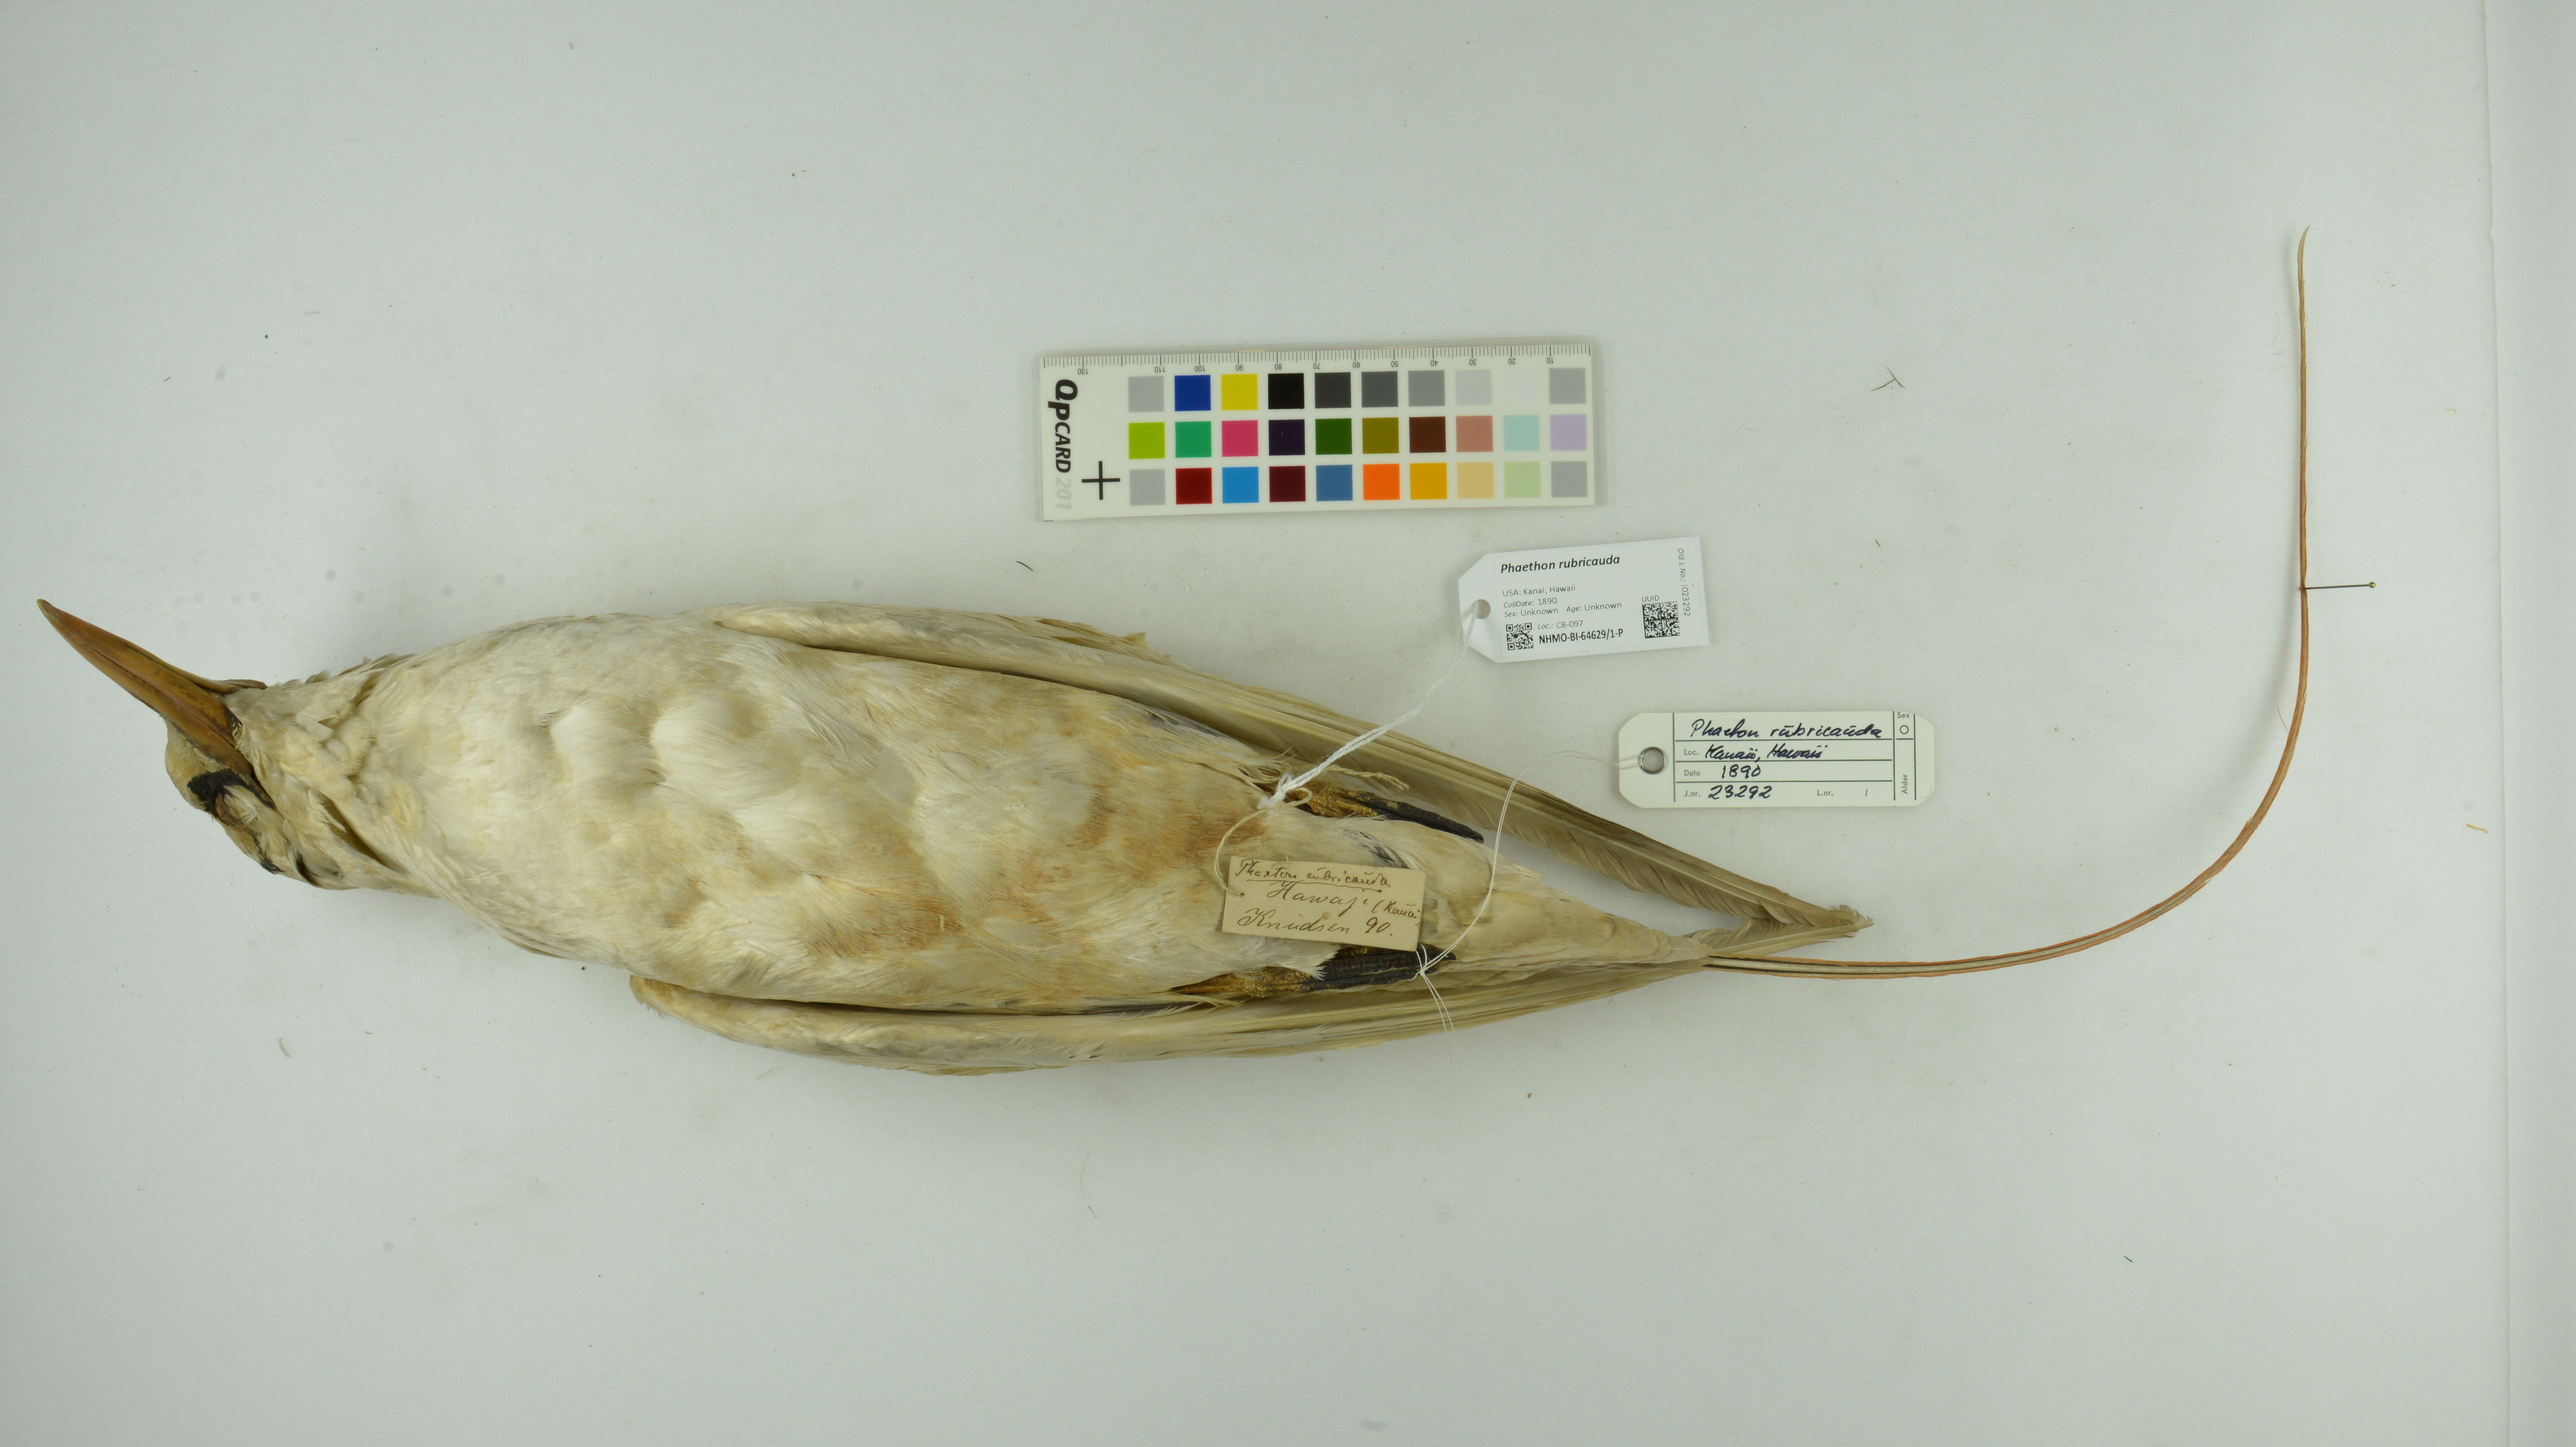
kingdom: Animalia
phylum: Chordata
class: Aves
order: Phaethontiformes
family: Phaethontidae
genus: Phaethon
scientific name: Phaethon rubricauda
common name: Red-tailed tropicbird
